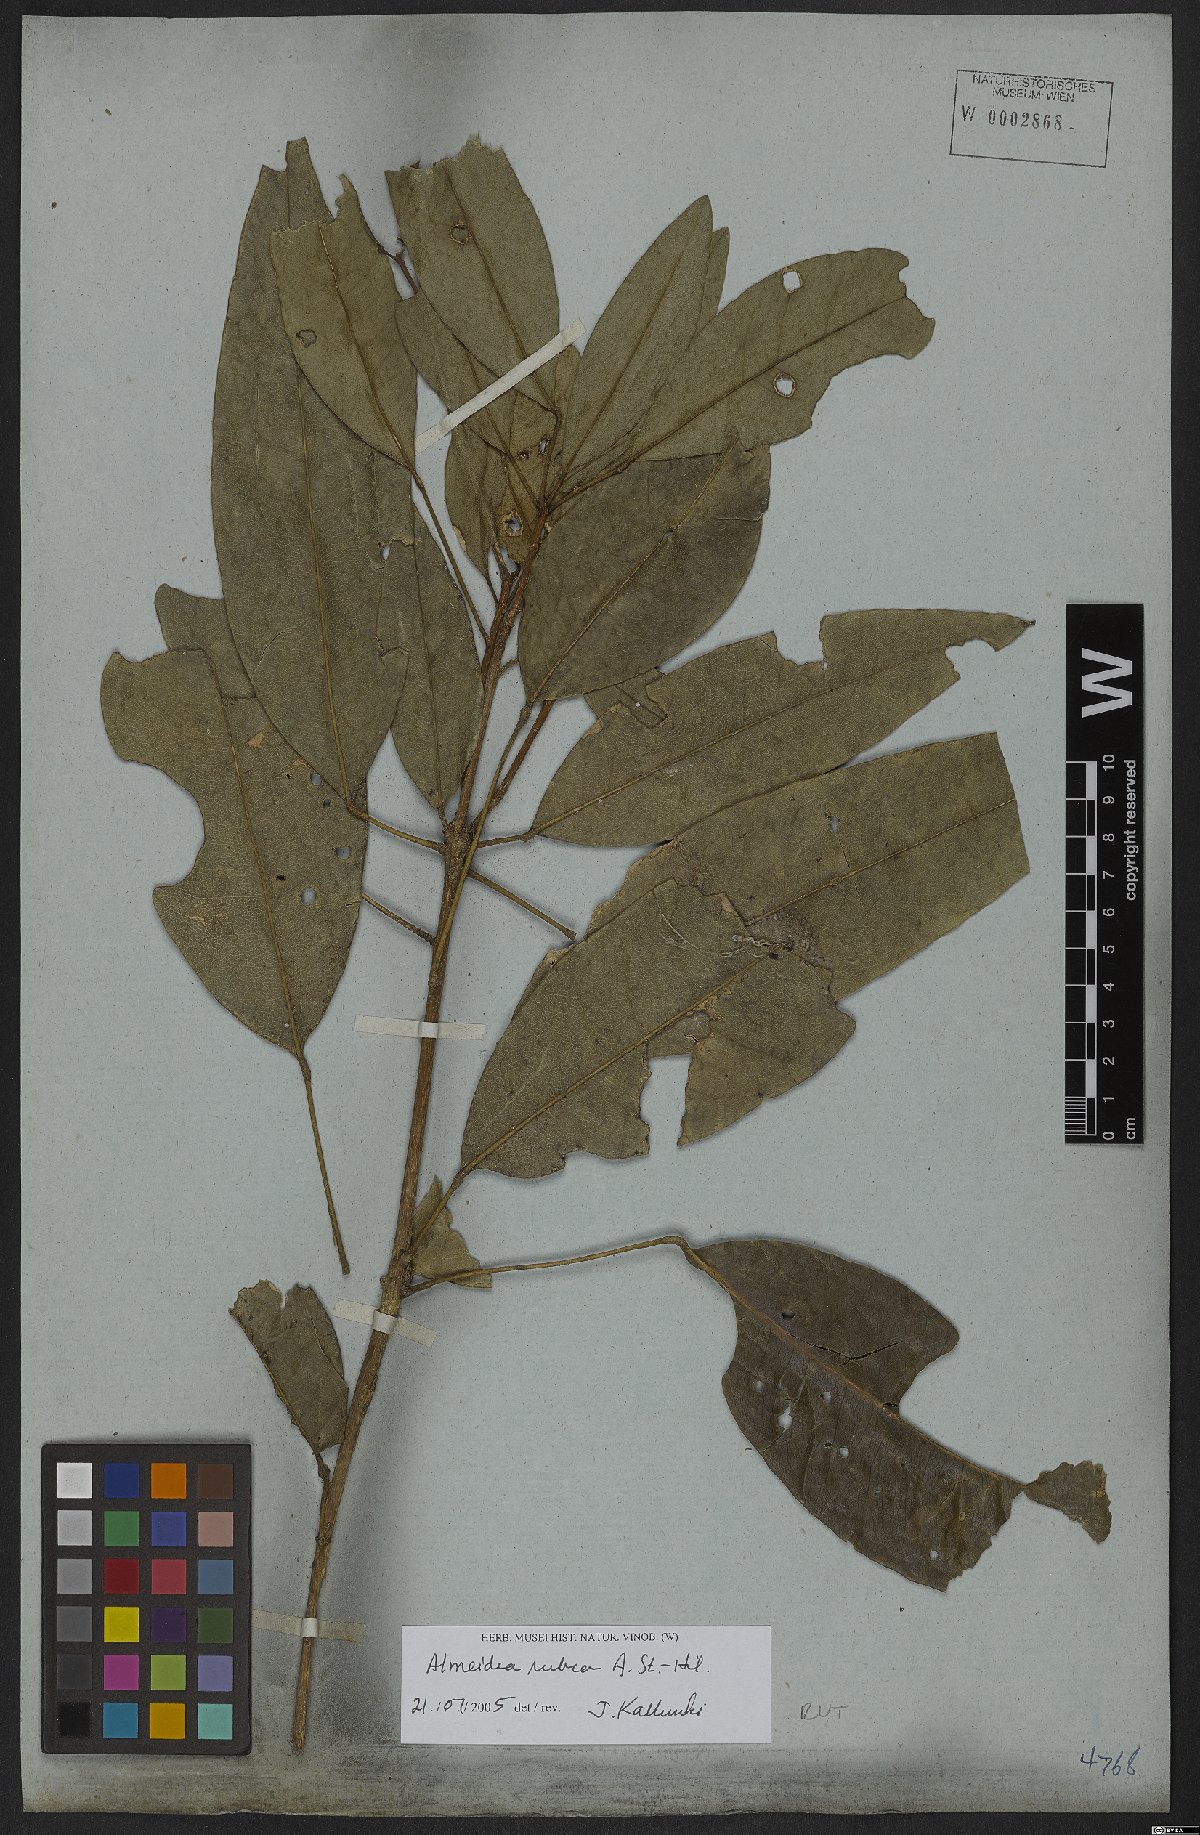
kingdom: Plantae
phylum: Tracheophyta
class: Magnoliopsida
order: Sapindales
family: Rutaceae
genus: Conchocarpus
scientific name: Conchocarpus ruber
